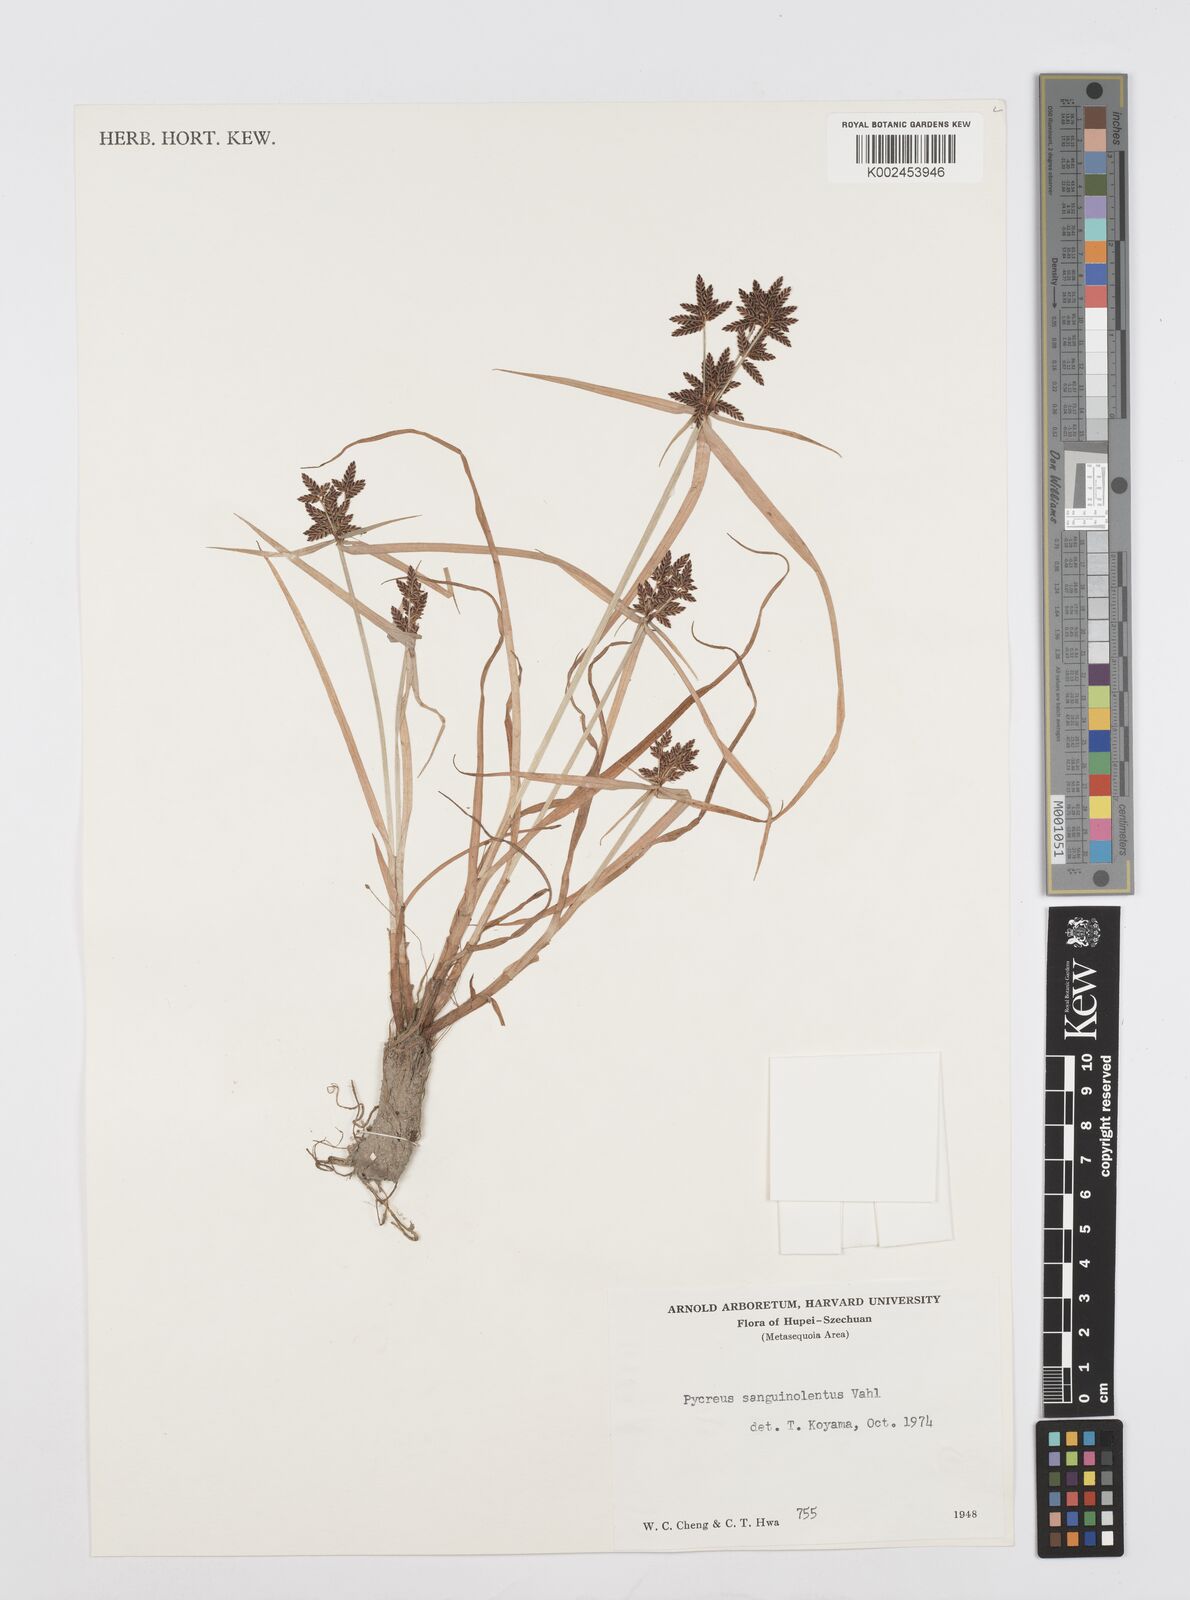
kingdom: Plantae
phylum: Tracheophyta
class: Liliopsida
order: Poales
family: Cyperaceae
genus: Cyperus
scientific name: Cyperus sanguinolentus
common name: Purpleglume flatsedge
